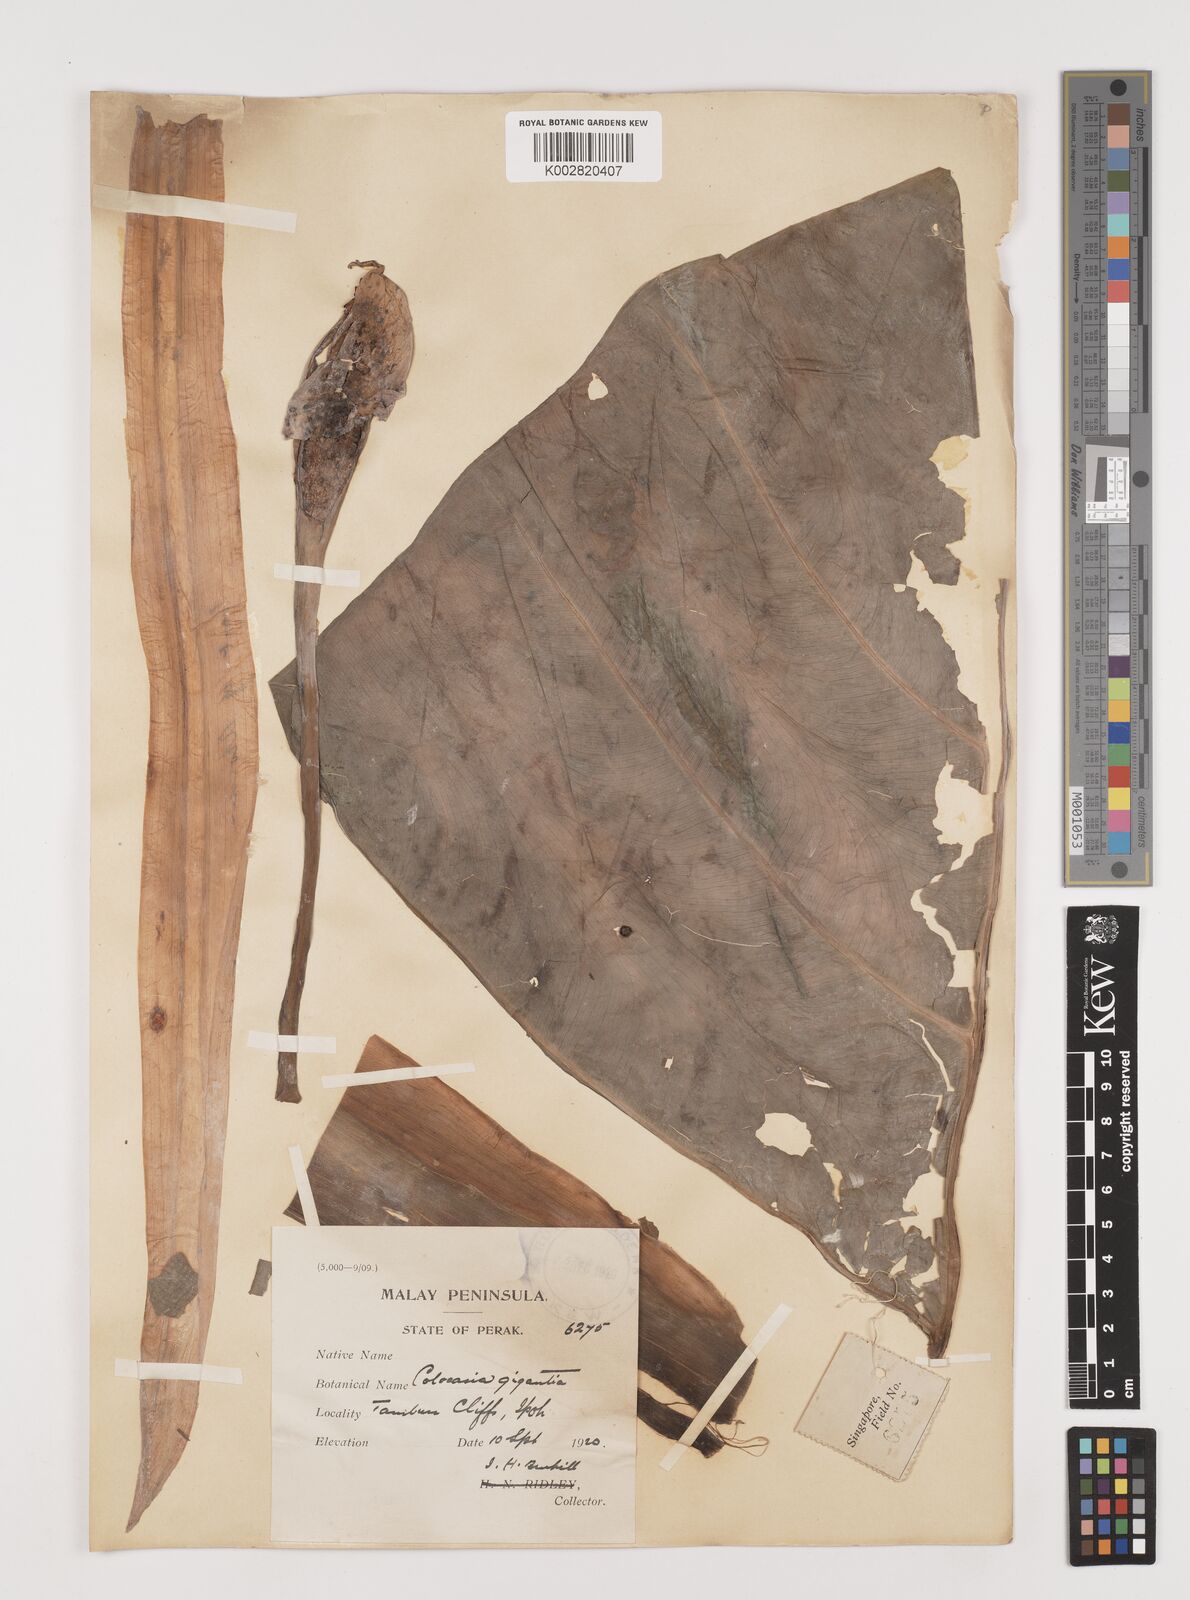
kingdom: Plantae
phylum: Tracheophyta
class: Liliopsida
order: Alismatales
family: Araceae
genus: Leucocasia
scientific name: Leucocasia gigantea
